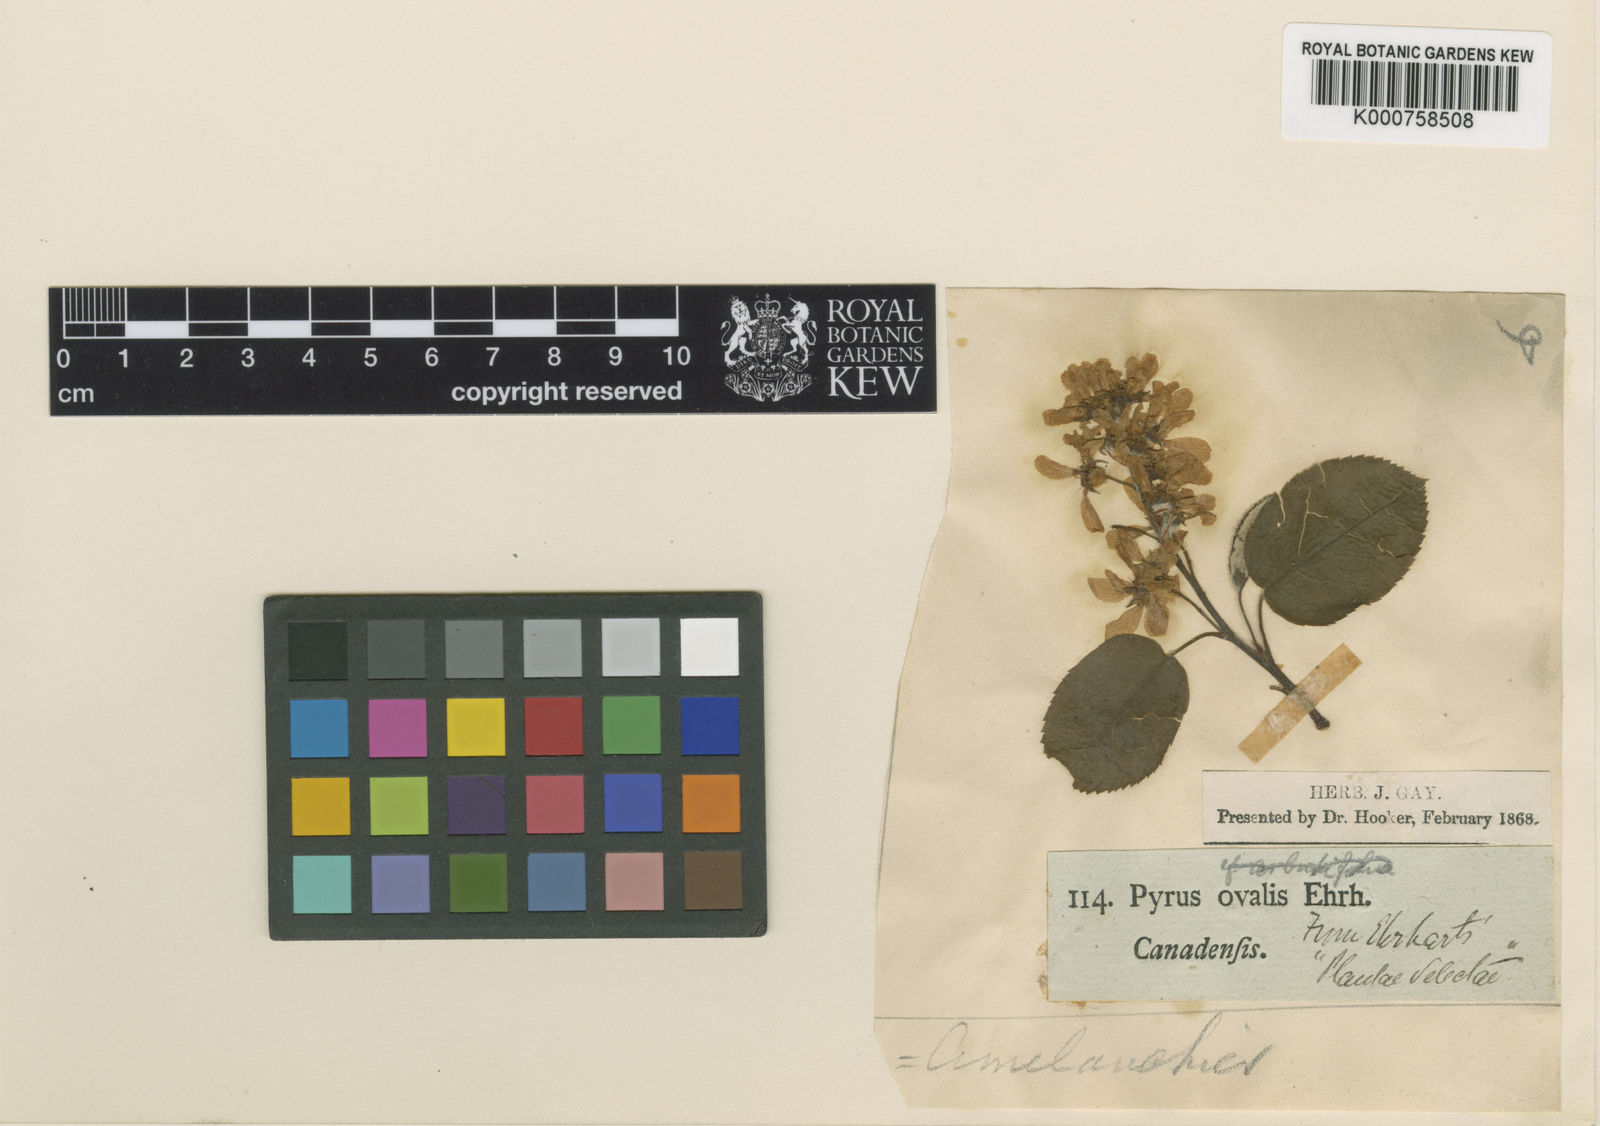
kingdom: Plantae
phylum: Tracheophyta
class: Magnoliopsida
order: Rosales
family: Rosaceae
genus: Amelanchier
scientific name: Amelanchier alnifolia
